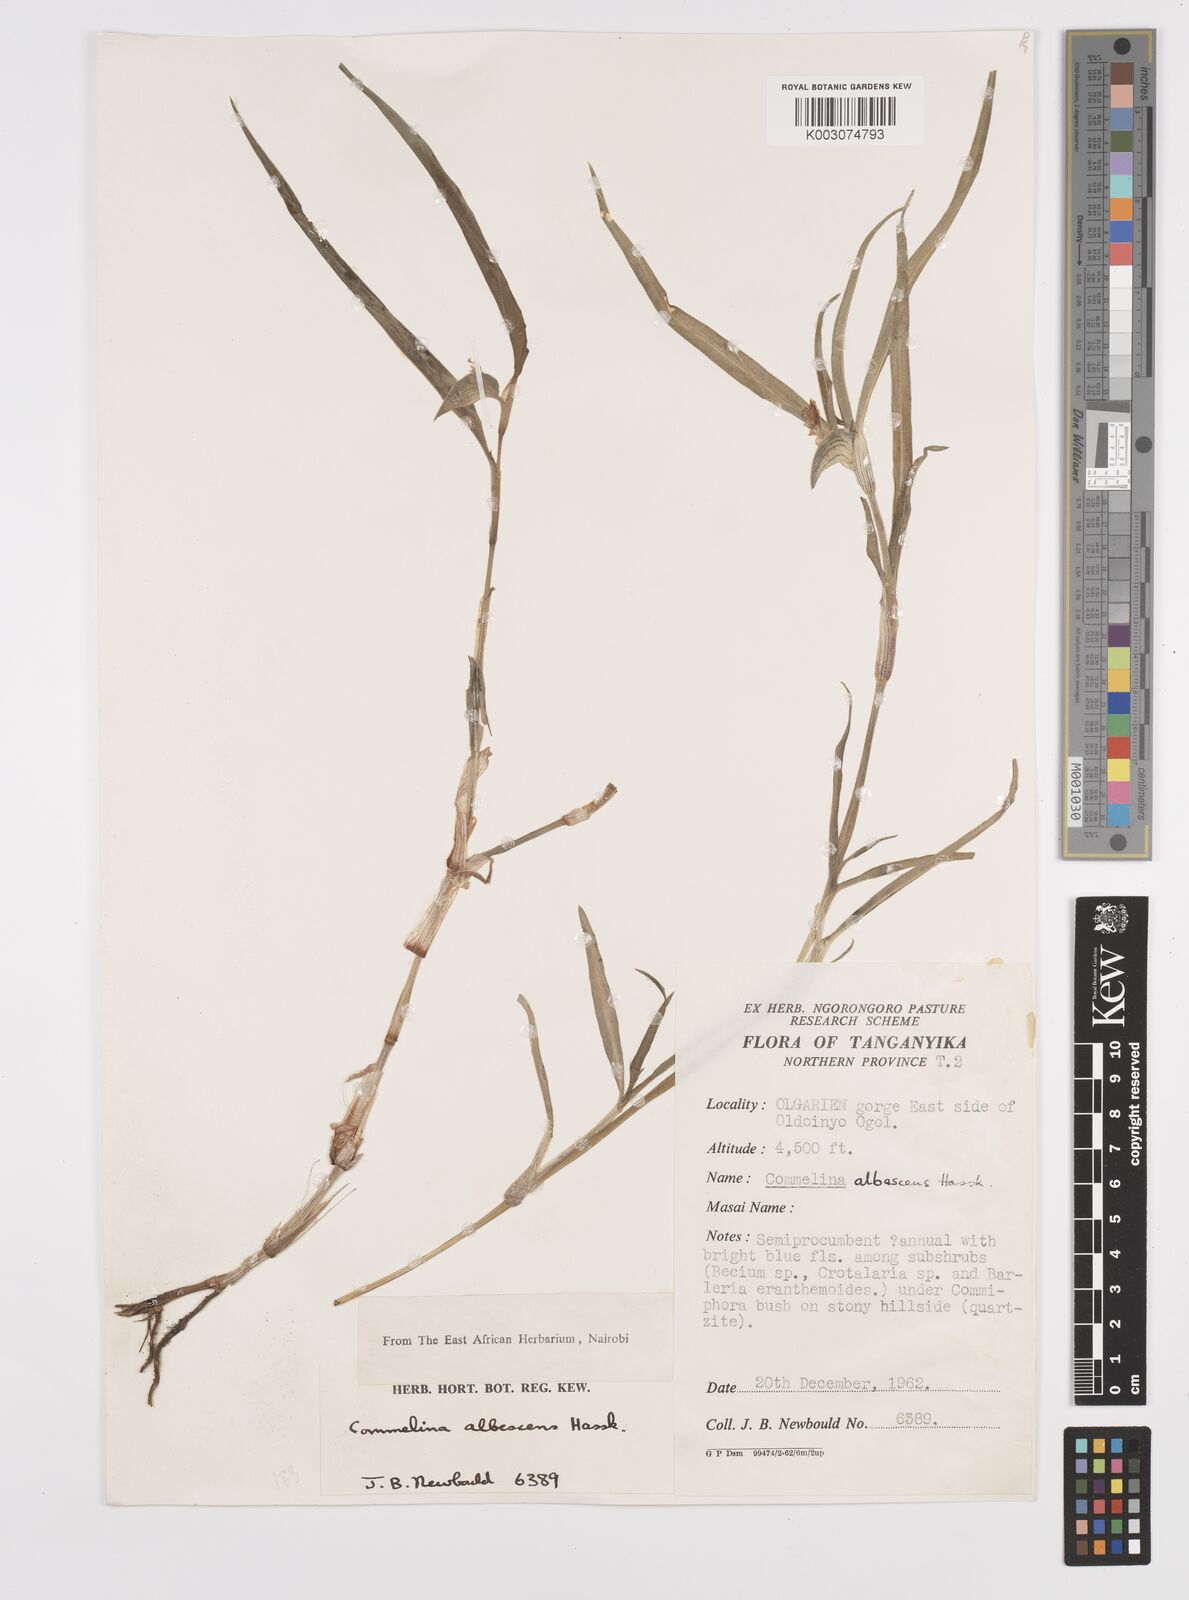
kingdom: Plantae
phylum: Tracheophyta
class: Liliopsida
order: Commelinales
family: Commelinaceae
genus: Commelina
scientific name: Commelina albescens
